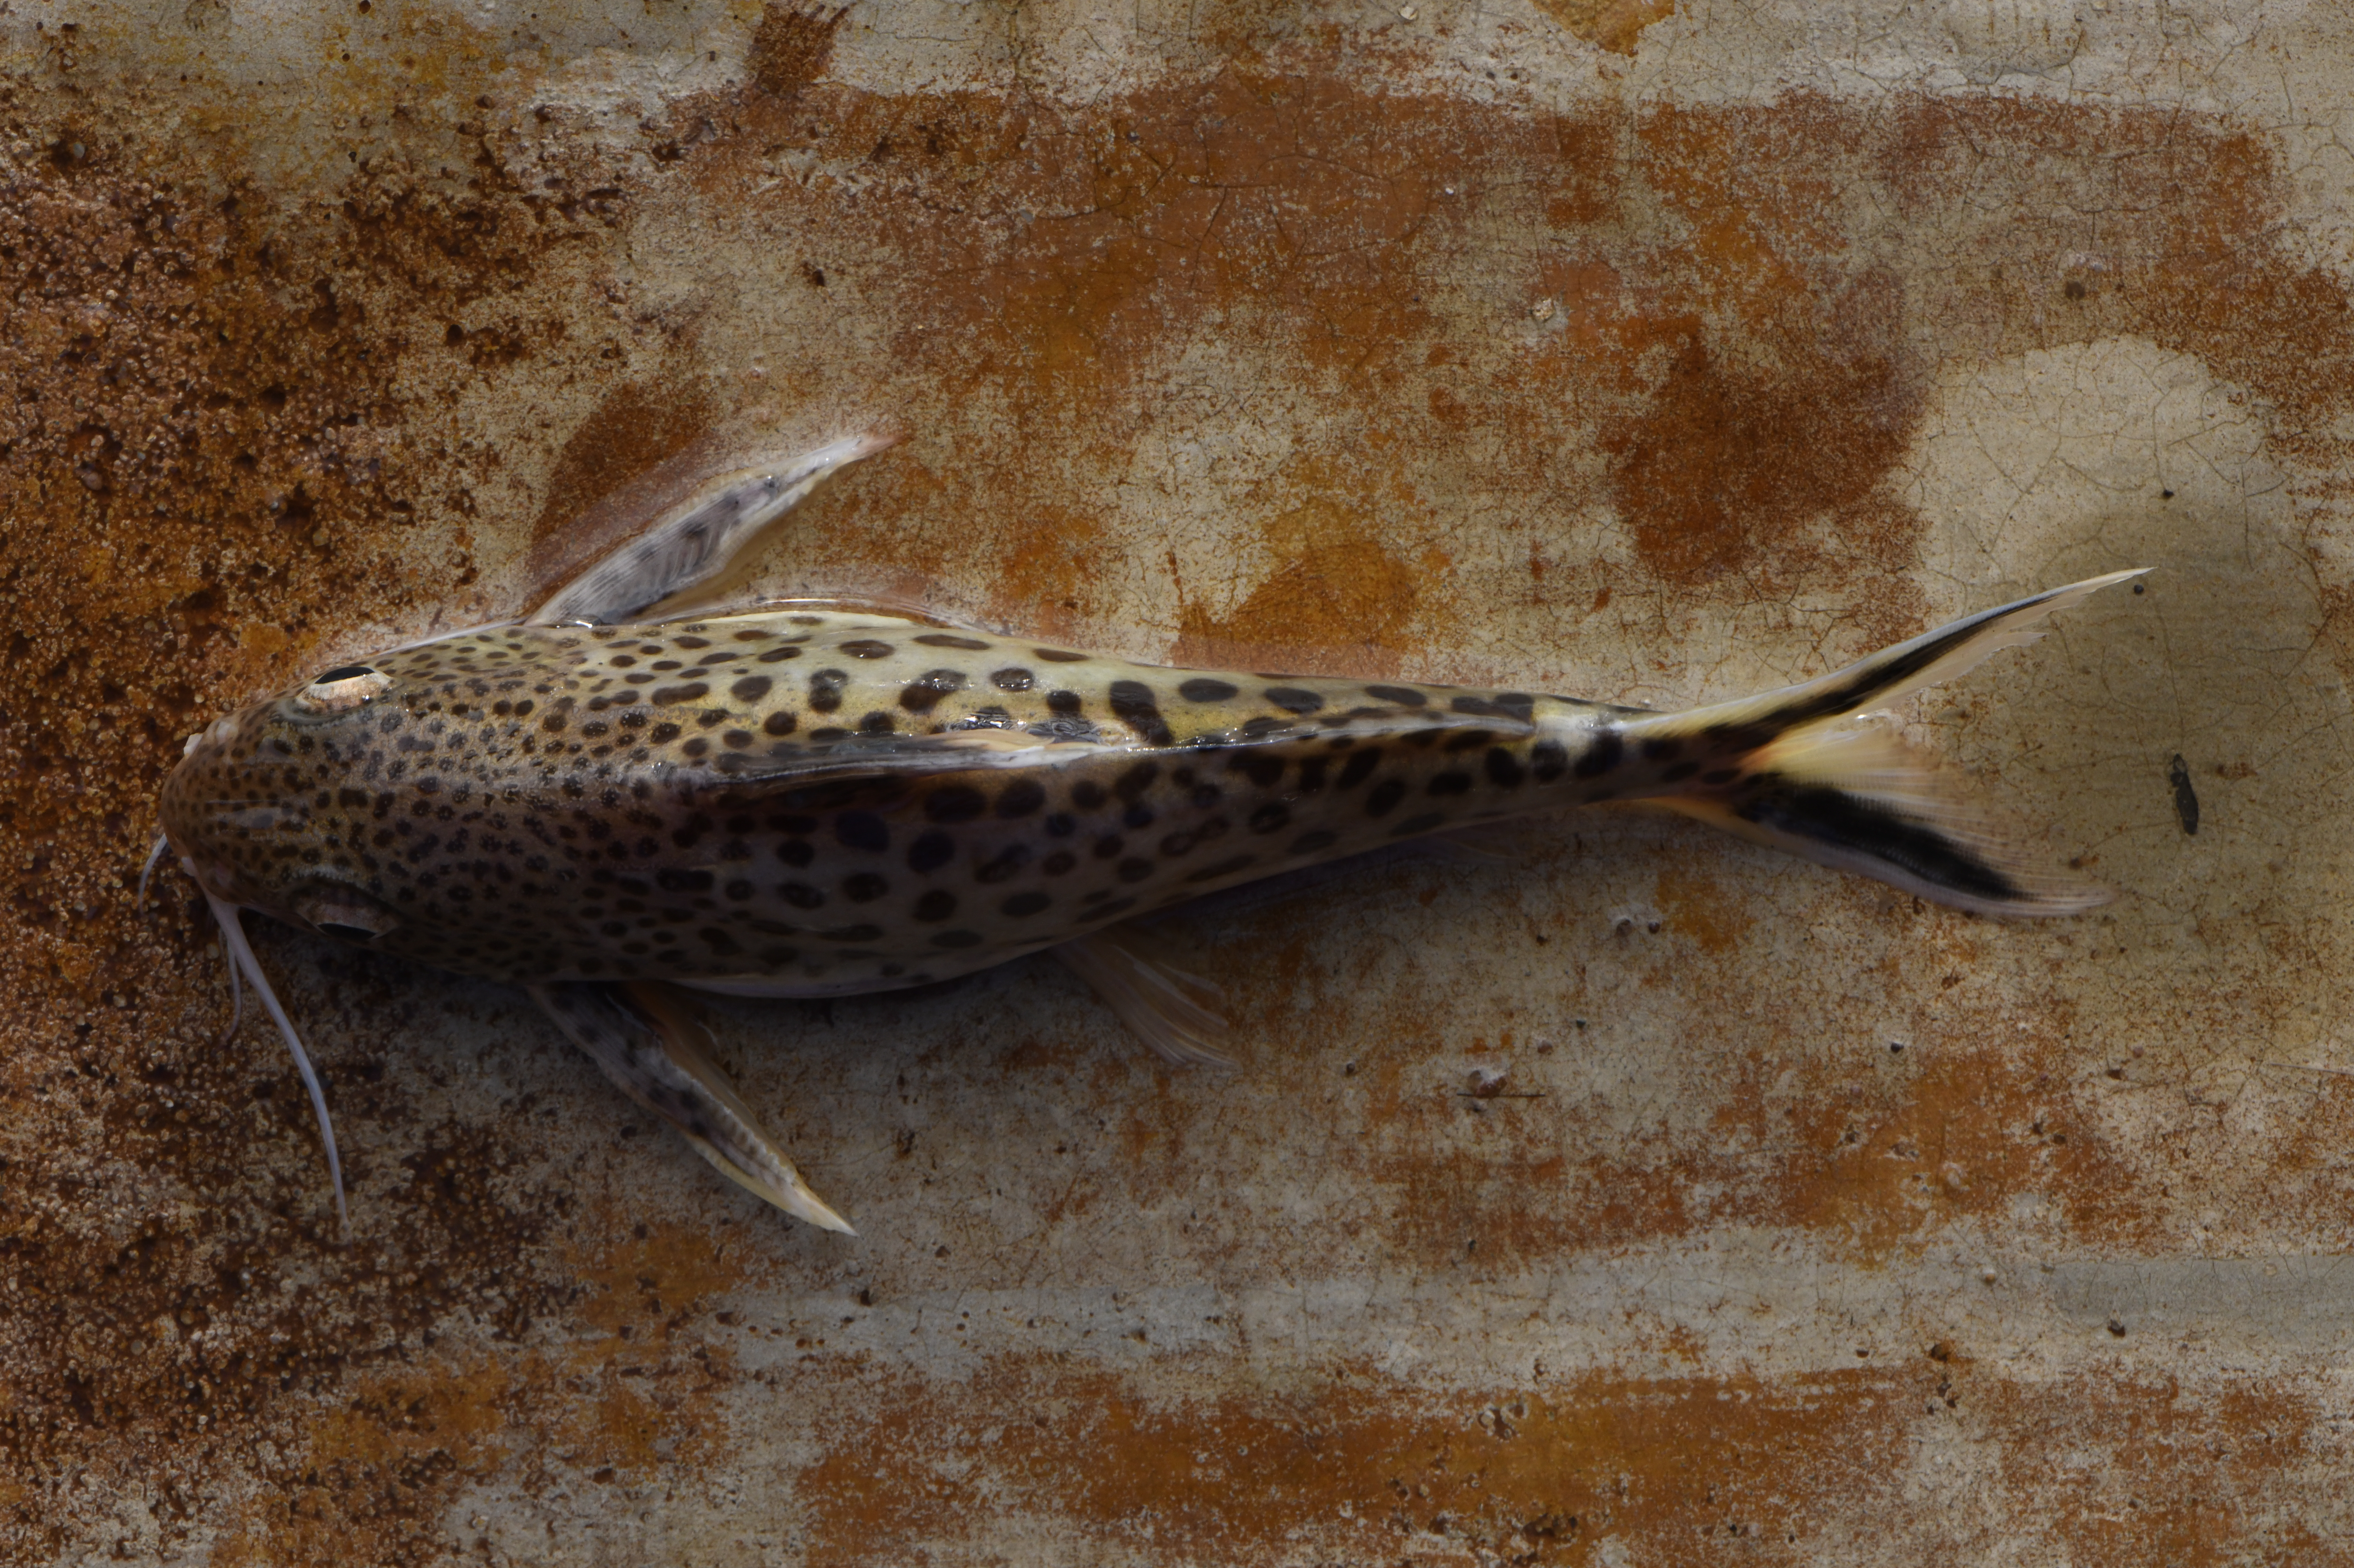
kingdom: Animalia
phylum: Chordata
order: Siluriformes
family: Mochokidae
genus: Synodontis
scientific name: Synodontis multipunctatus
